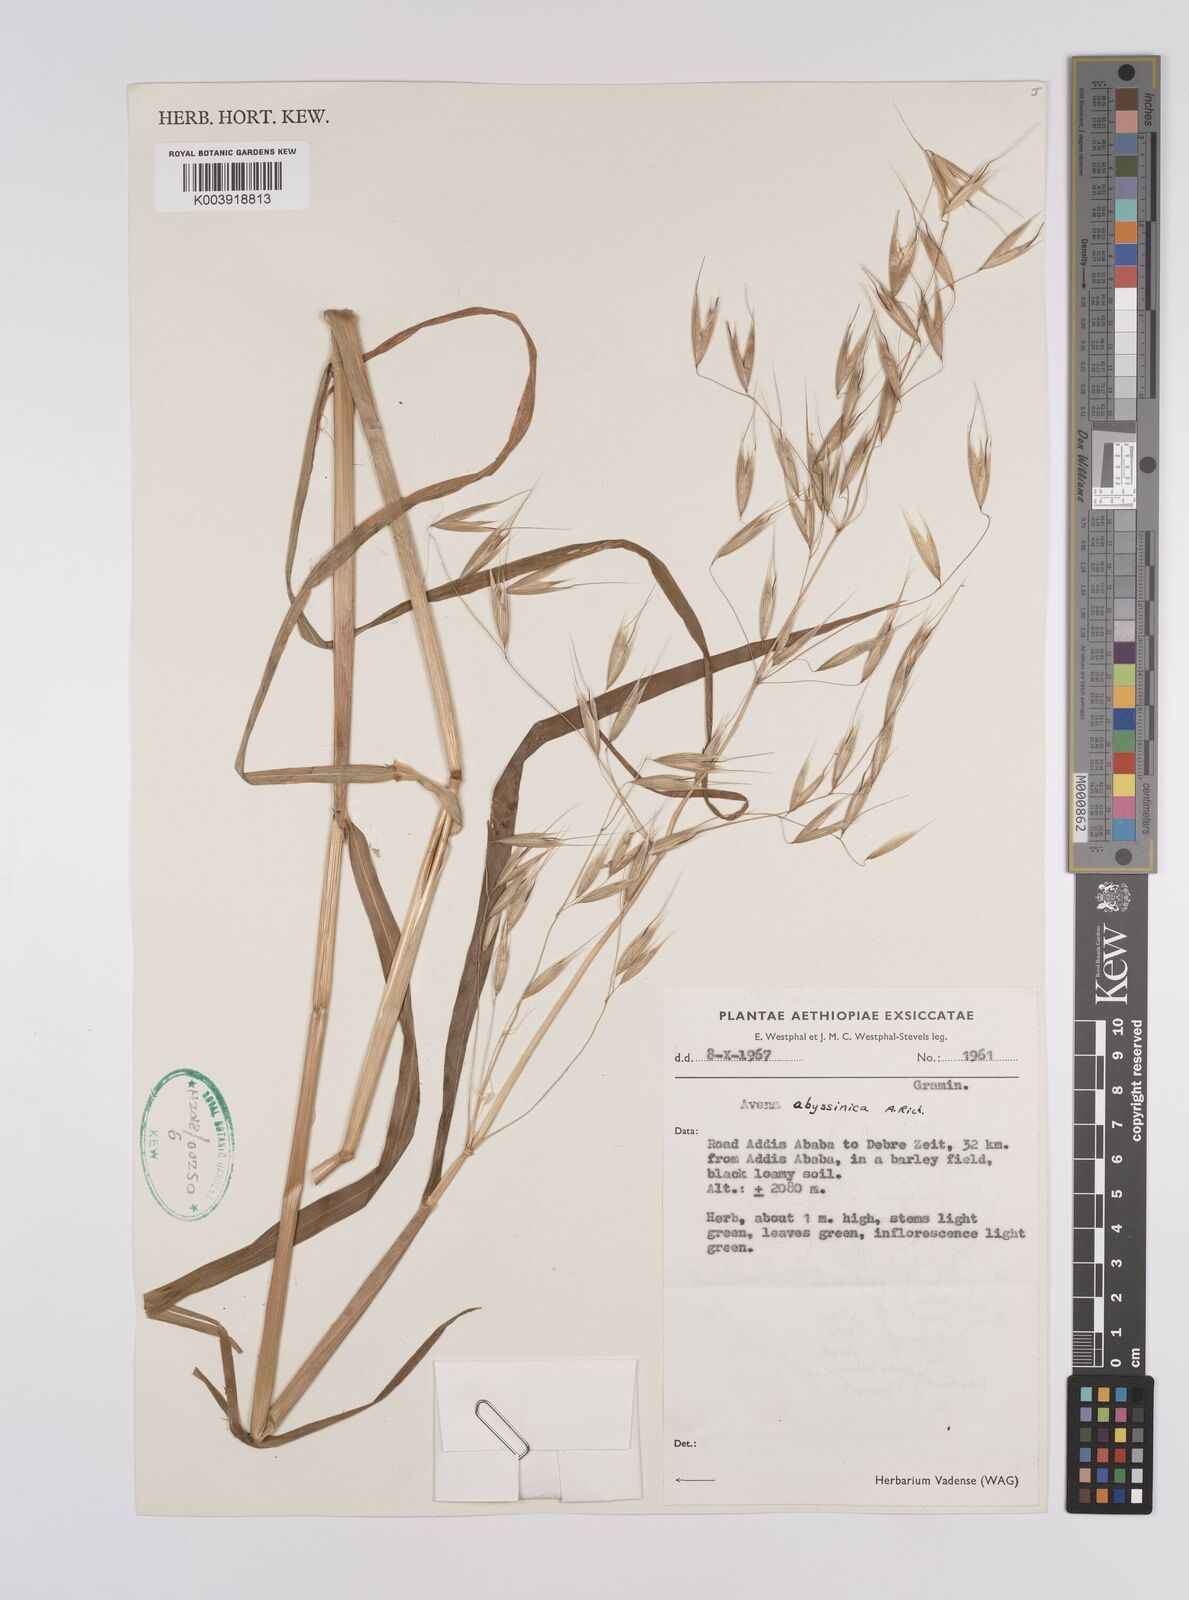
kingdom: Plantae
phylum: Tracheophyta
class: Liliopsida
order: Poales
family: Poaceae
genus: Avena
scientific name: Avena abyssinica
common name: Ethiopian oat
